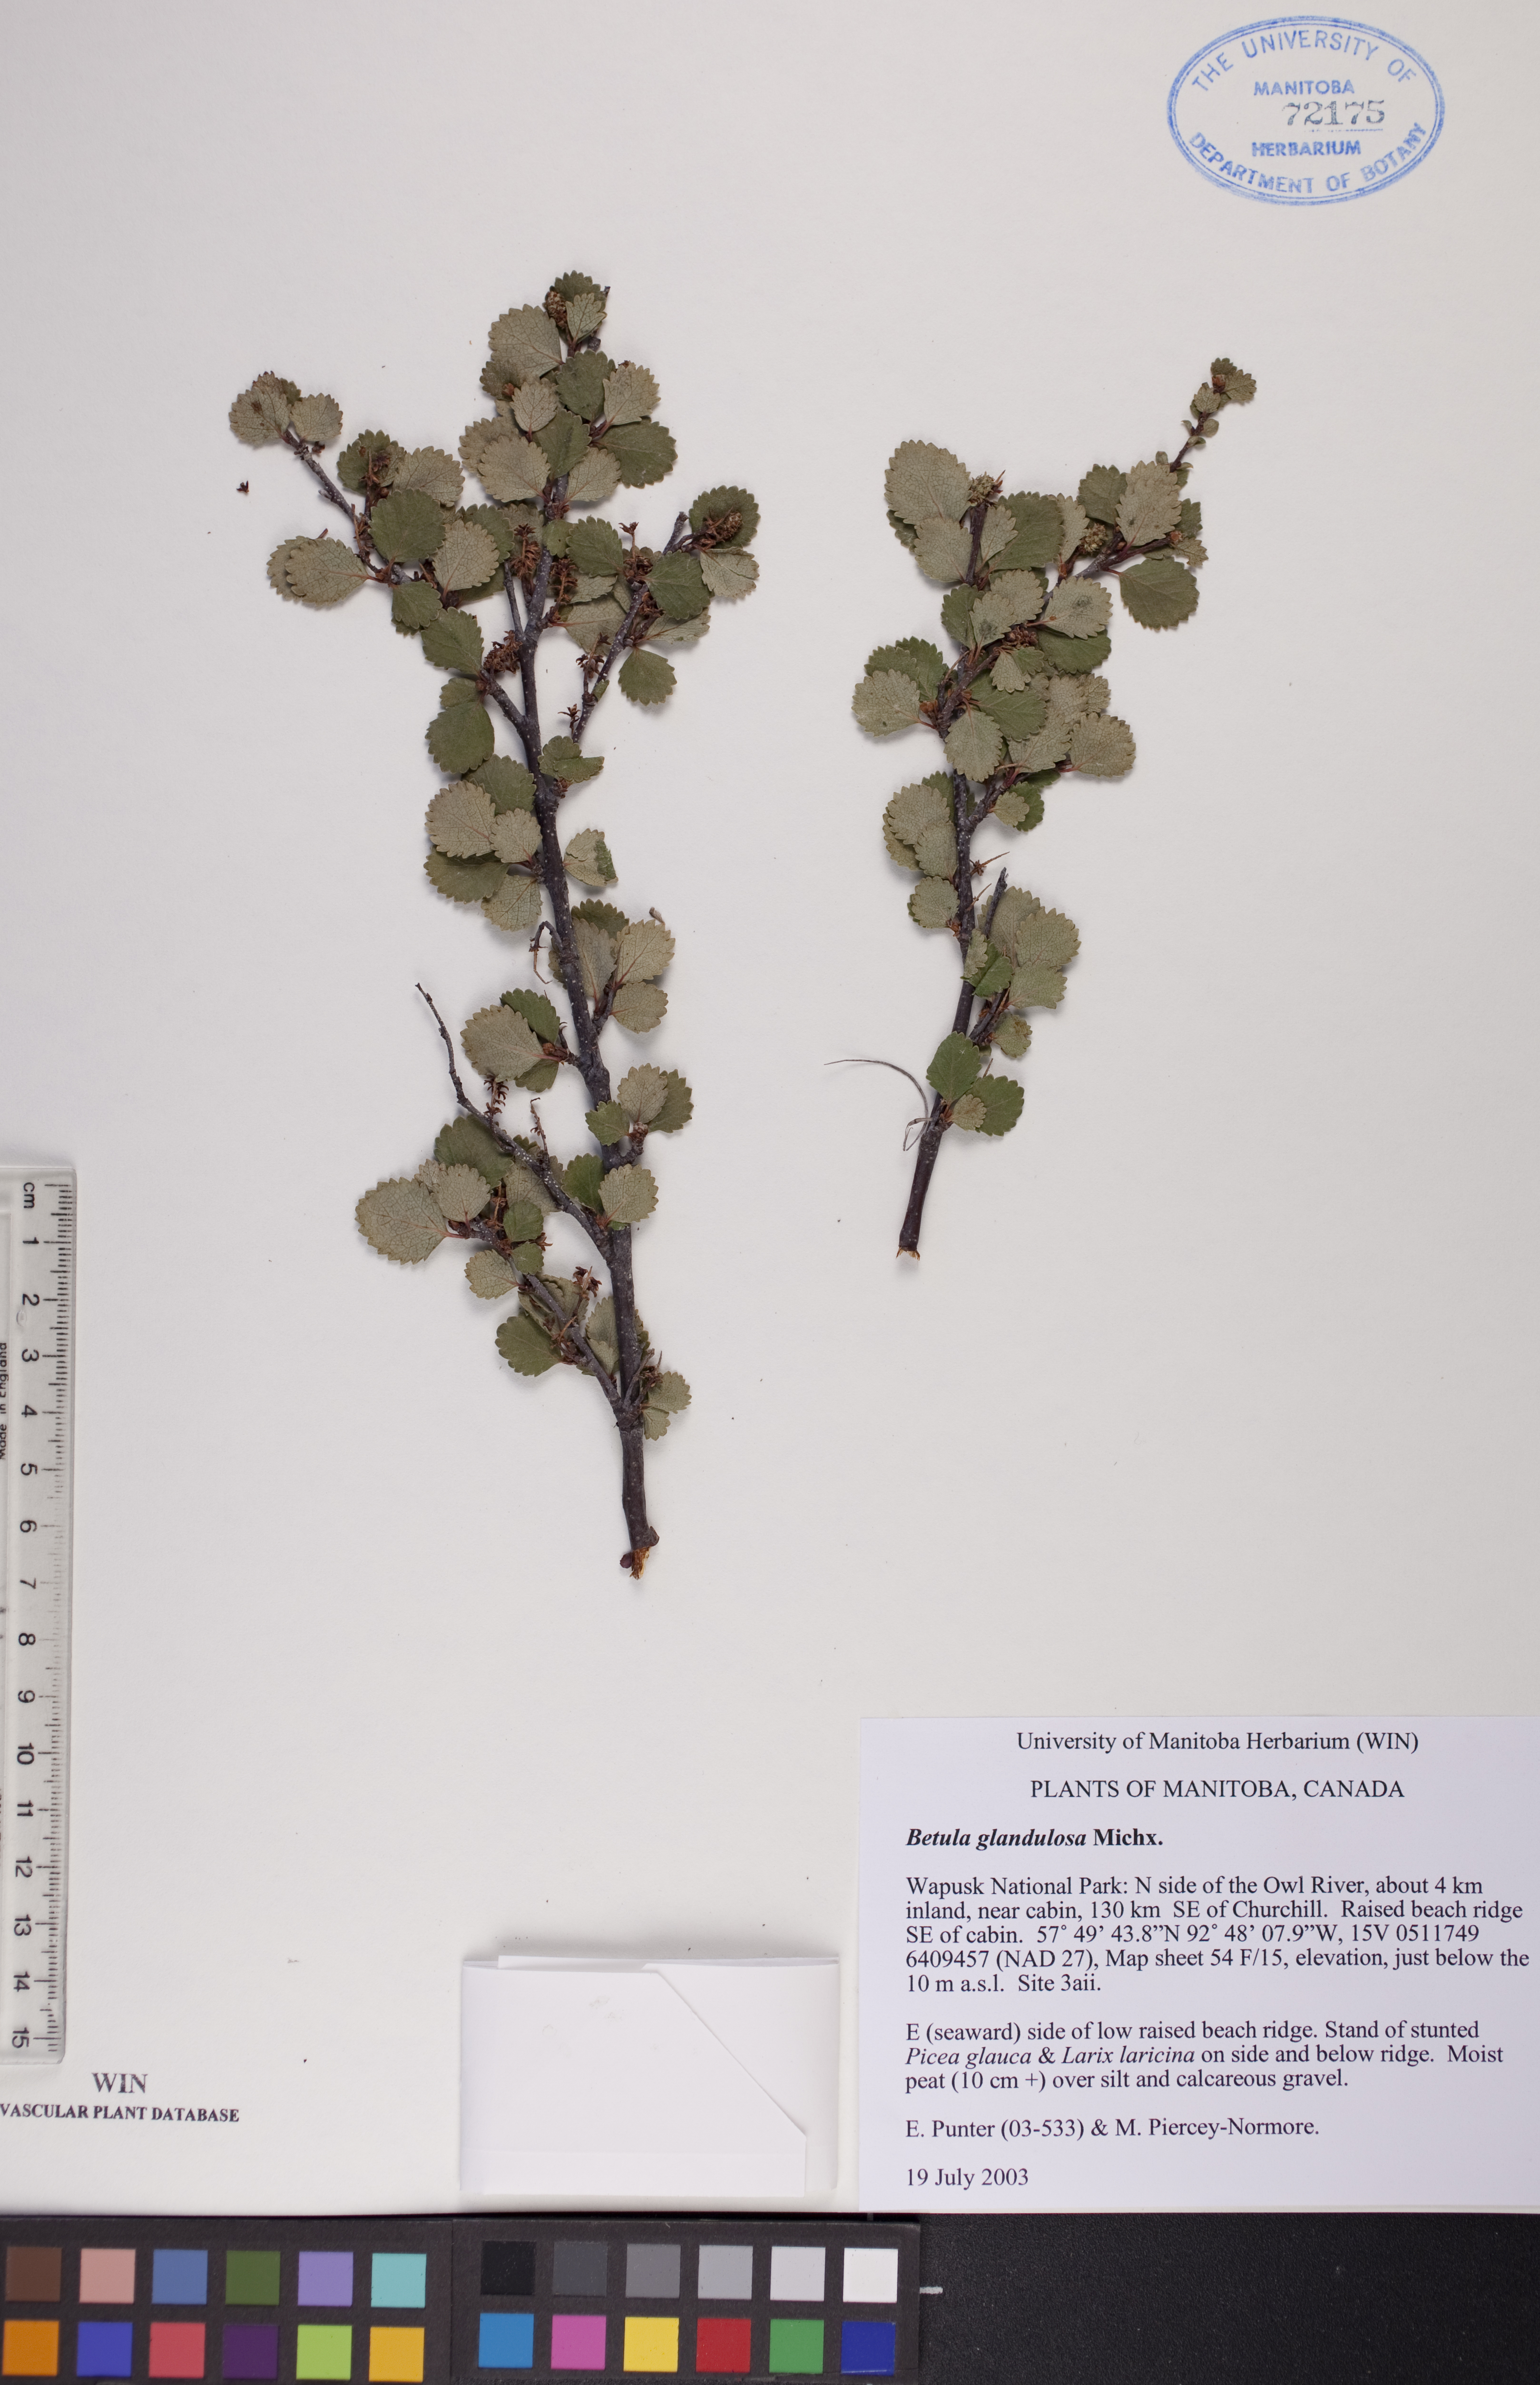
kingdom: Plantae
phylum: Tracheophyta
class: Magnoliopsida
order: Fagales
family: Betulaceae
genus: Betula
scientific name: Betula glandulosa
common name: Dwarf birch
